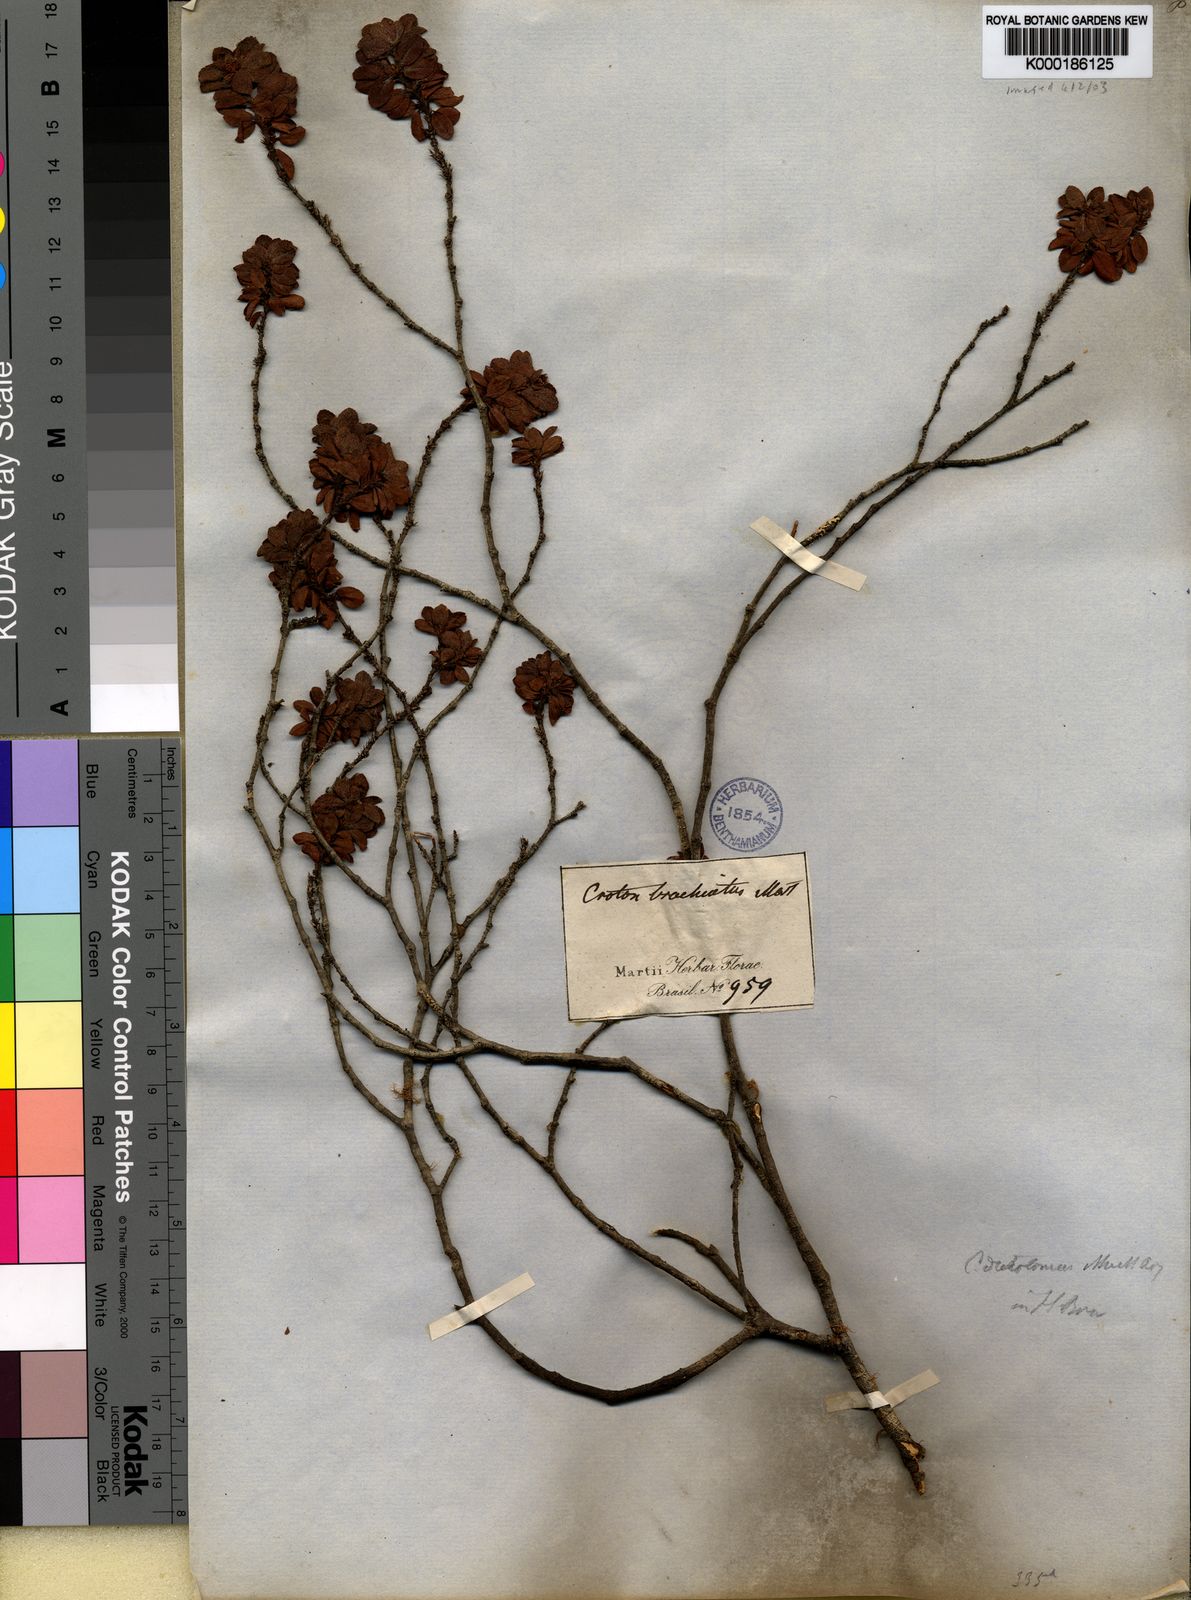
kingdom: Plantae
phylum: Tracheophyta
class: Magnoliopsida
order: Malpighiales
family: Euphorbiaceae
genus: Croton
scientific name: Croton serratus
